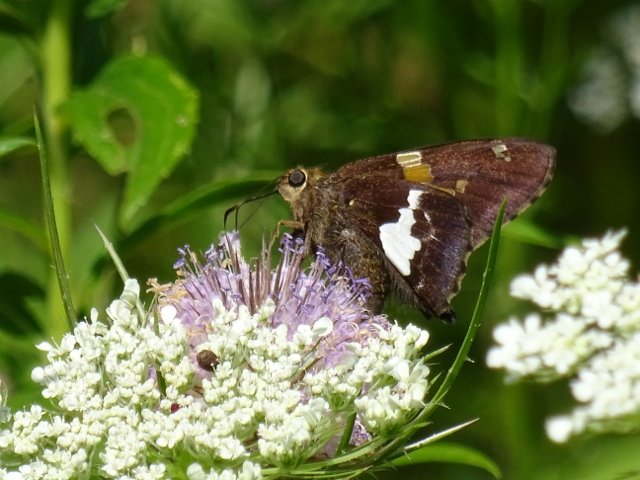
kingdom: Animalia
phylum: Arthropoda
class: Insecta
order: Lepidoptera
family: Hesperiidae
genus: Epargyreus
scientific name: Epargyreus clarus
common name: Silver-spotted Skipper
